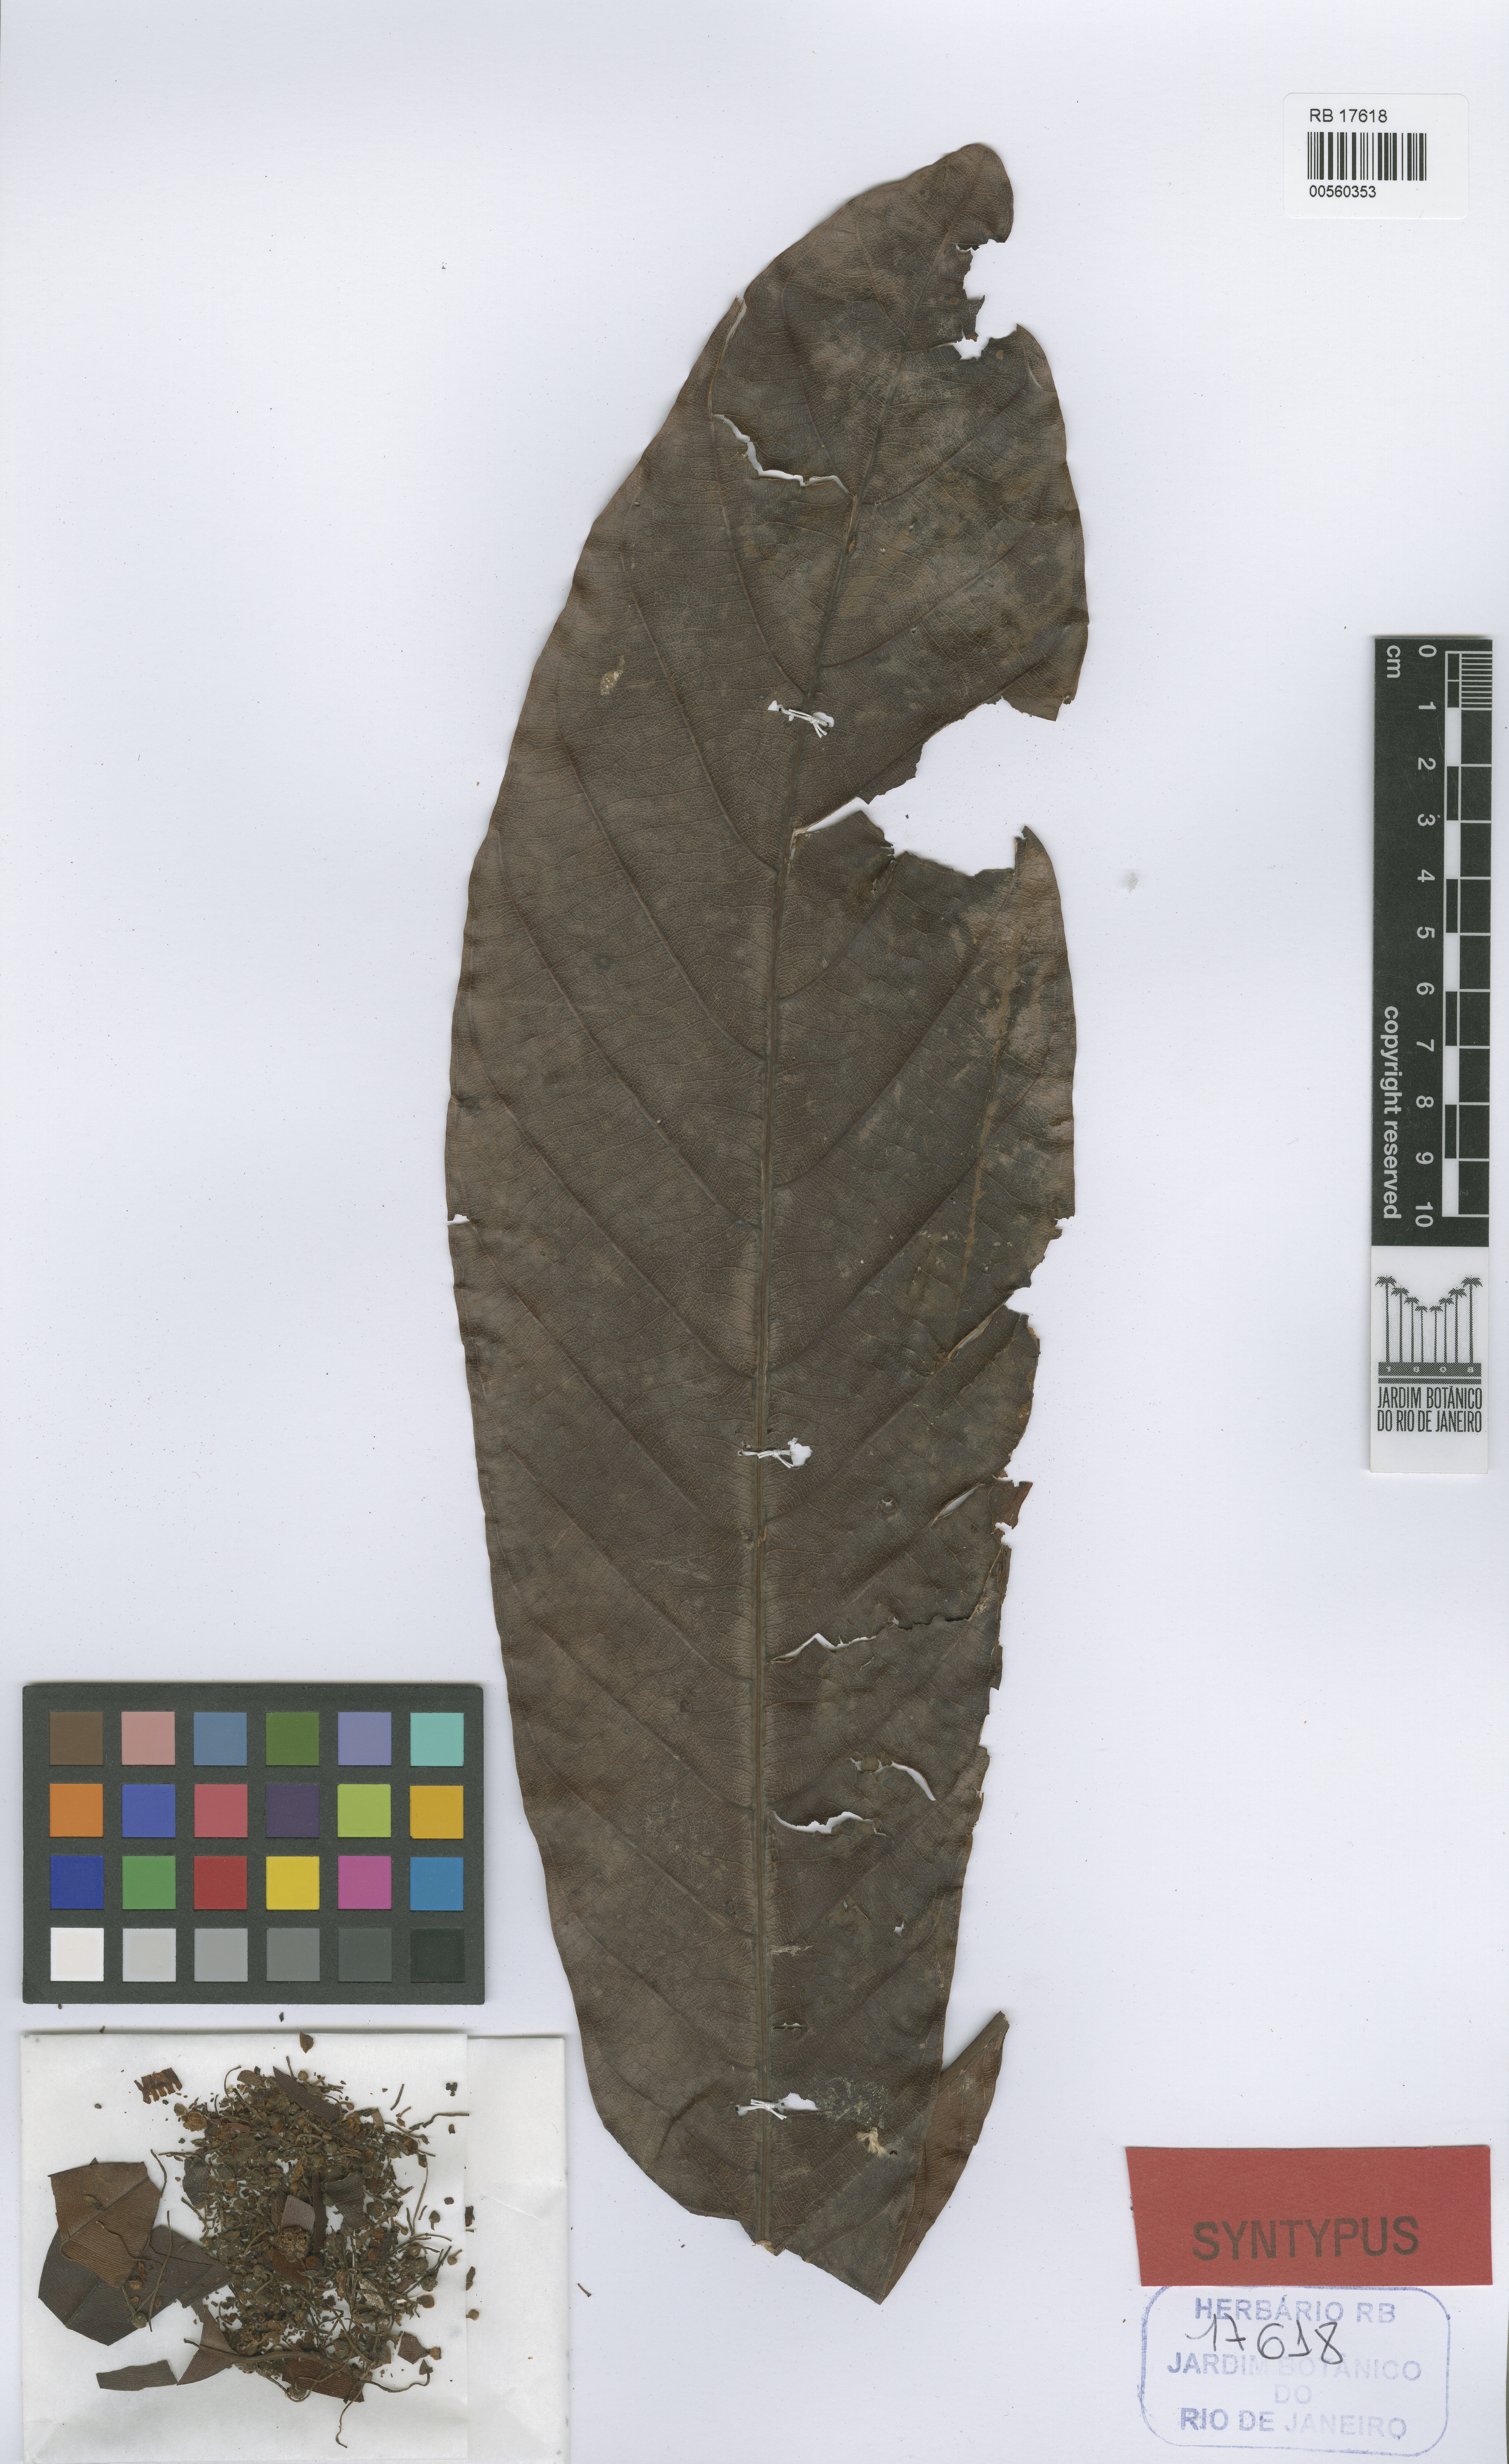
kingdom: Plantae
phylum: Tracheophyta
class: Magnoliopsida
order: Ericales
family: Sapotaceae
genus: Chromolucuma
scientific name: Chromolucuma rubriflora
